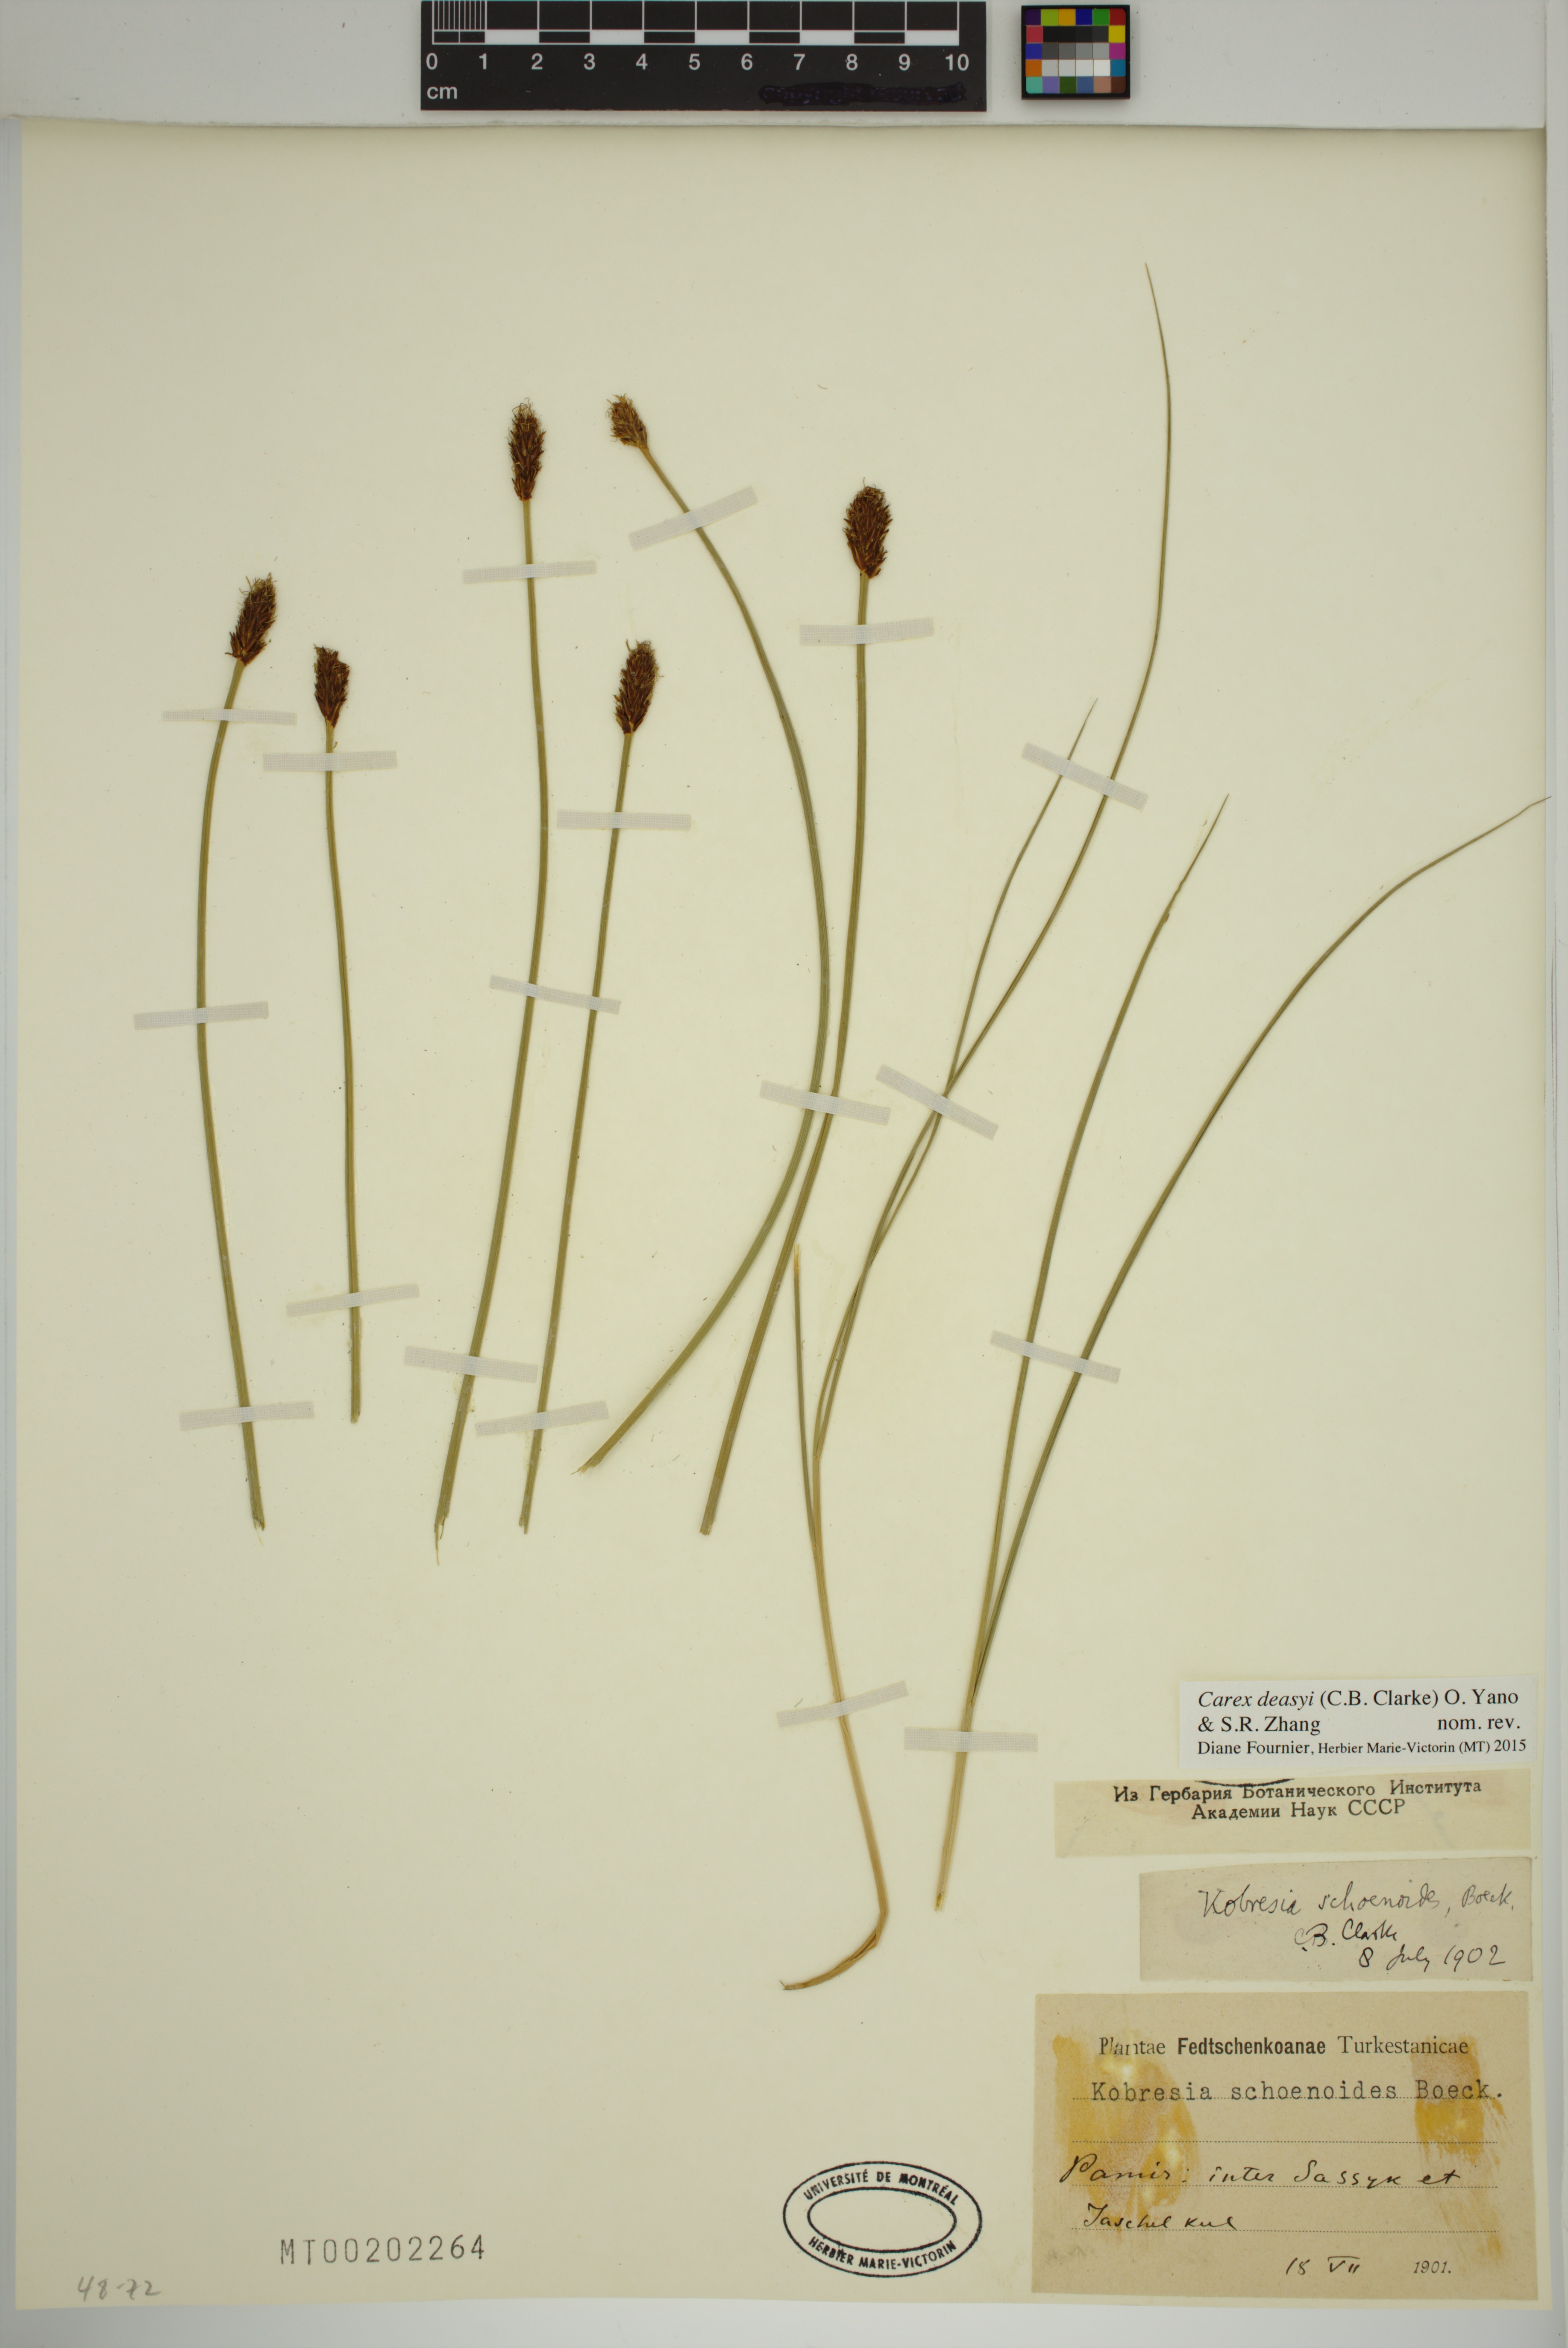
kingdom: Plantae
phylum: Tracheophyta
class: Liliopsida
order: Poales
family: Cyperaceae
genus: Carex
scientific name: Carex deasyi
